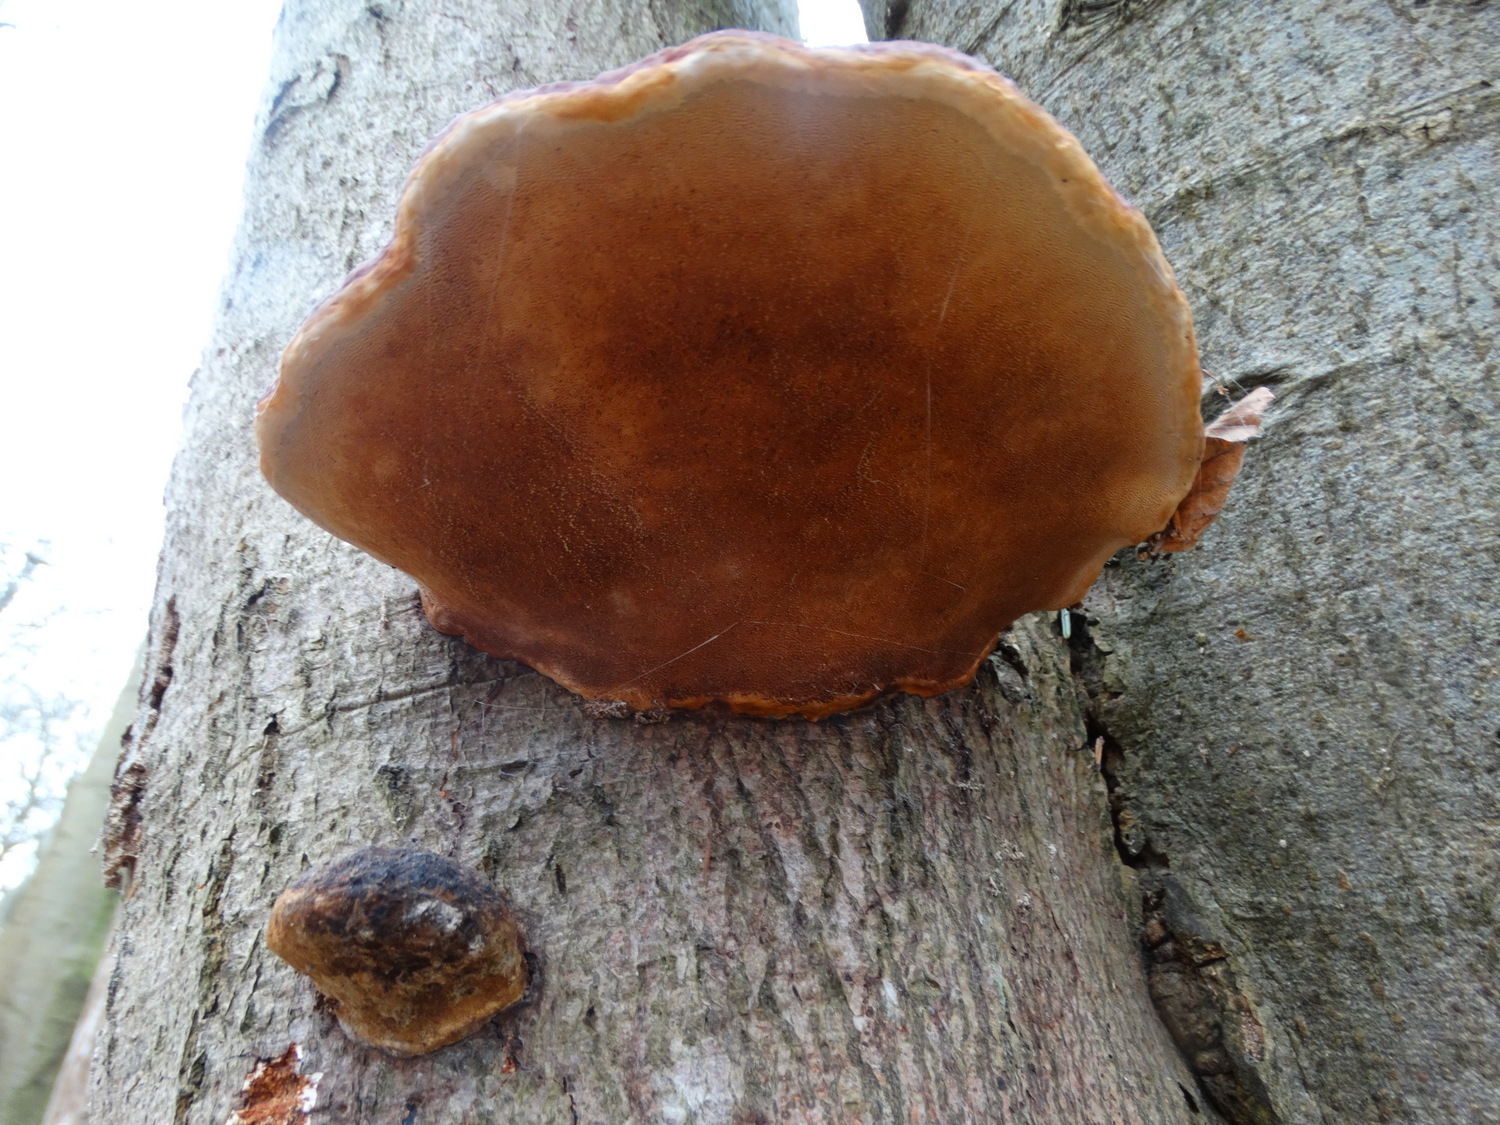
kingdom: Fungi
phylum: Basidiomycota
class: Agaricomycetes
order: Polyporales
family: Fomitopsidaceae
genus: Fomitopsis
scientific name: Fomitopsis pinicola
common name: randbæltet hovporesvamp
